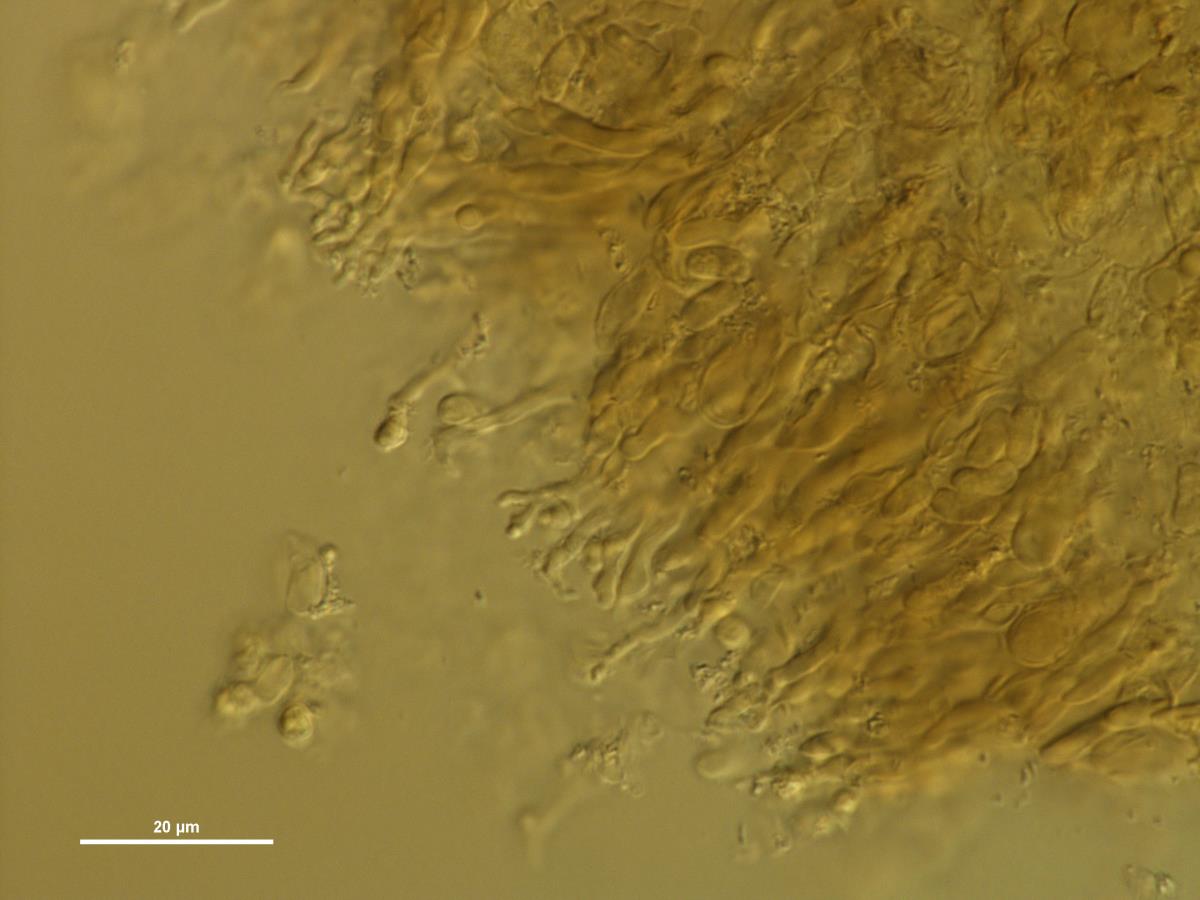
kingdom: Fungi
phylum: Basidiomycota
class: Agaricomycetes
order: Agaricales
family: Pleurotaceae
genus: Resupinatus
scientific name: Resupinatus huia
